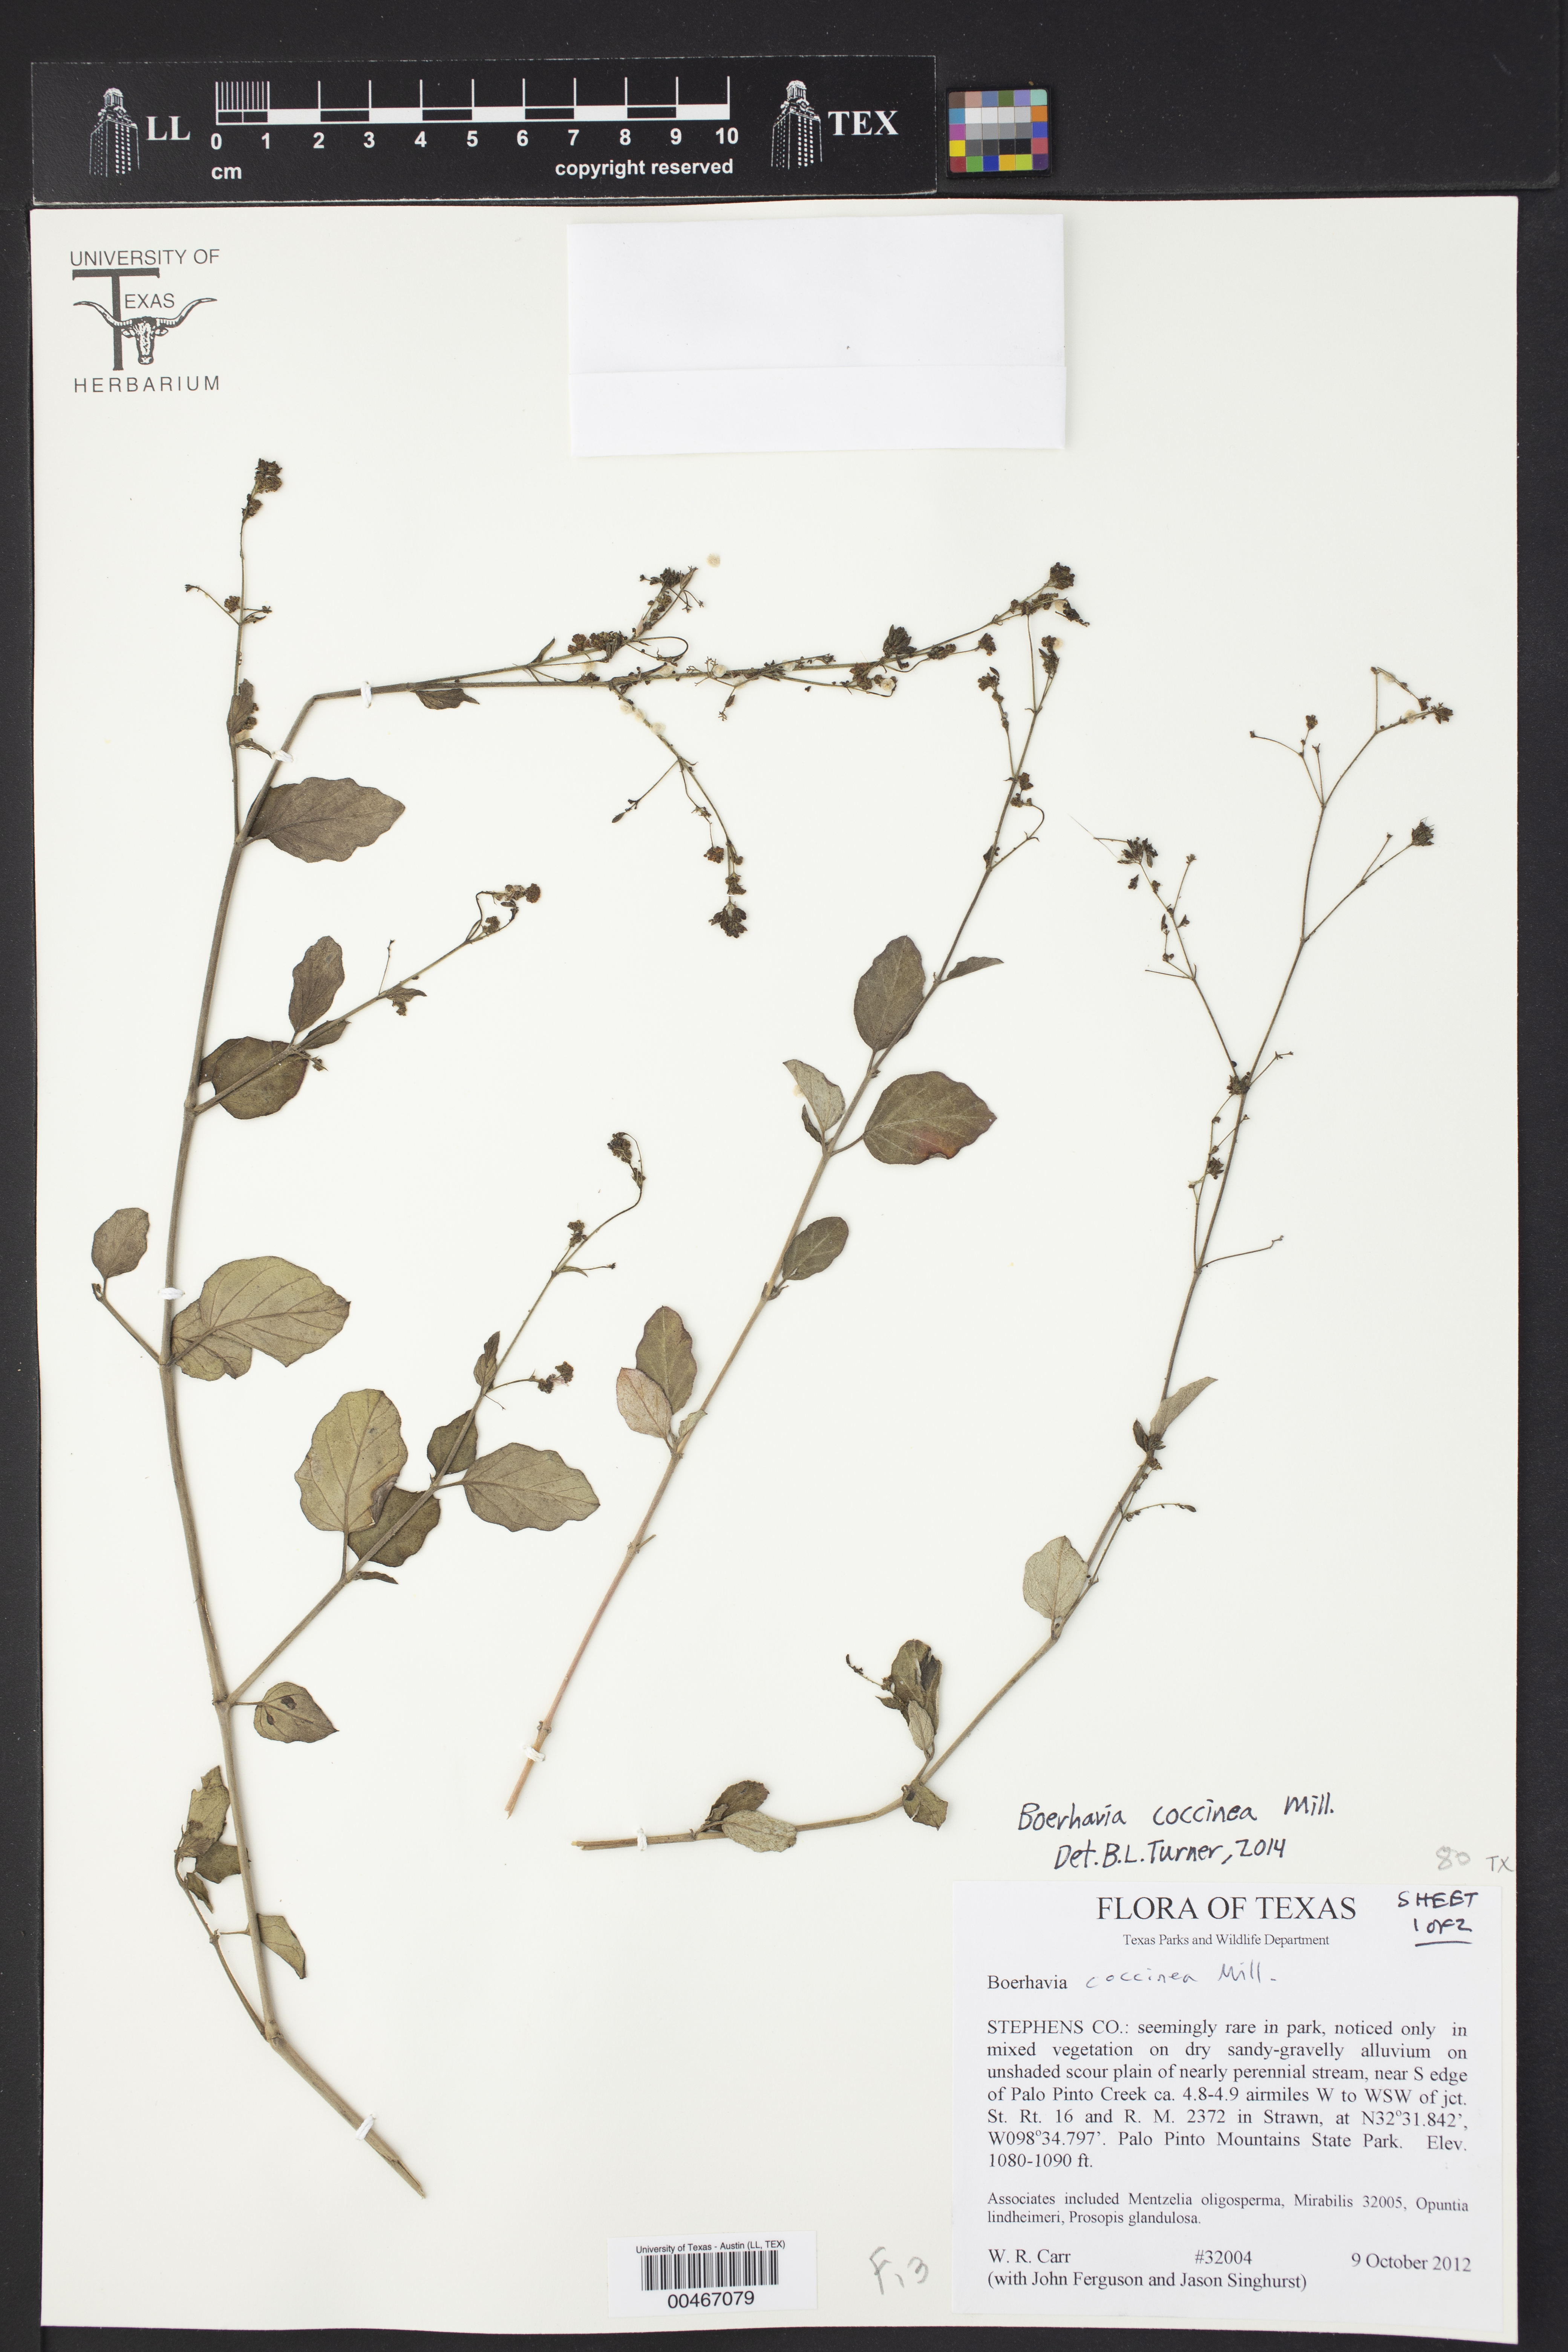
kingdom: Plantae
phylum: Tracheophyta
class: Magnoliopsida
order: Caryophyllales
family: Nyctaginaceae
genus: Boerhavia
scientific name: Boerhavia coccinea
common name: Scarlet spiderling
